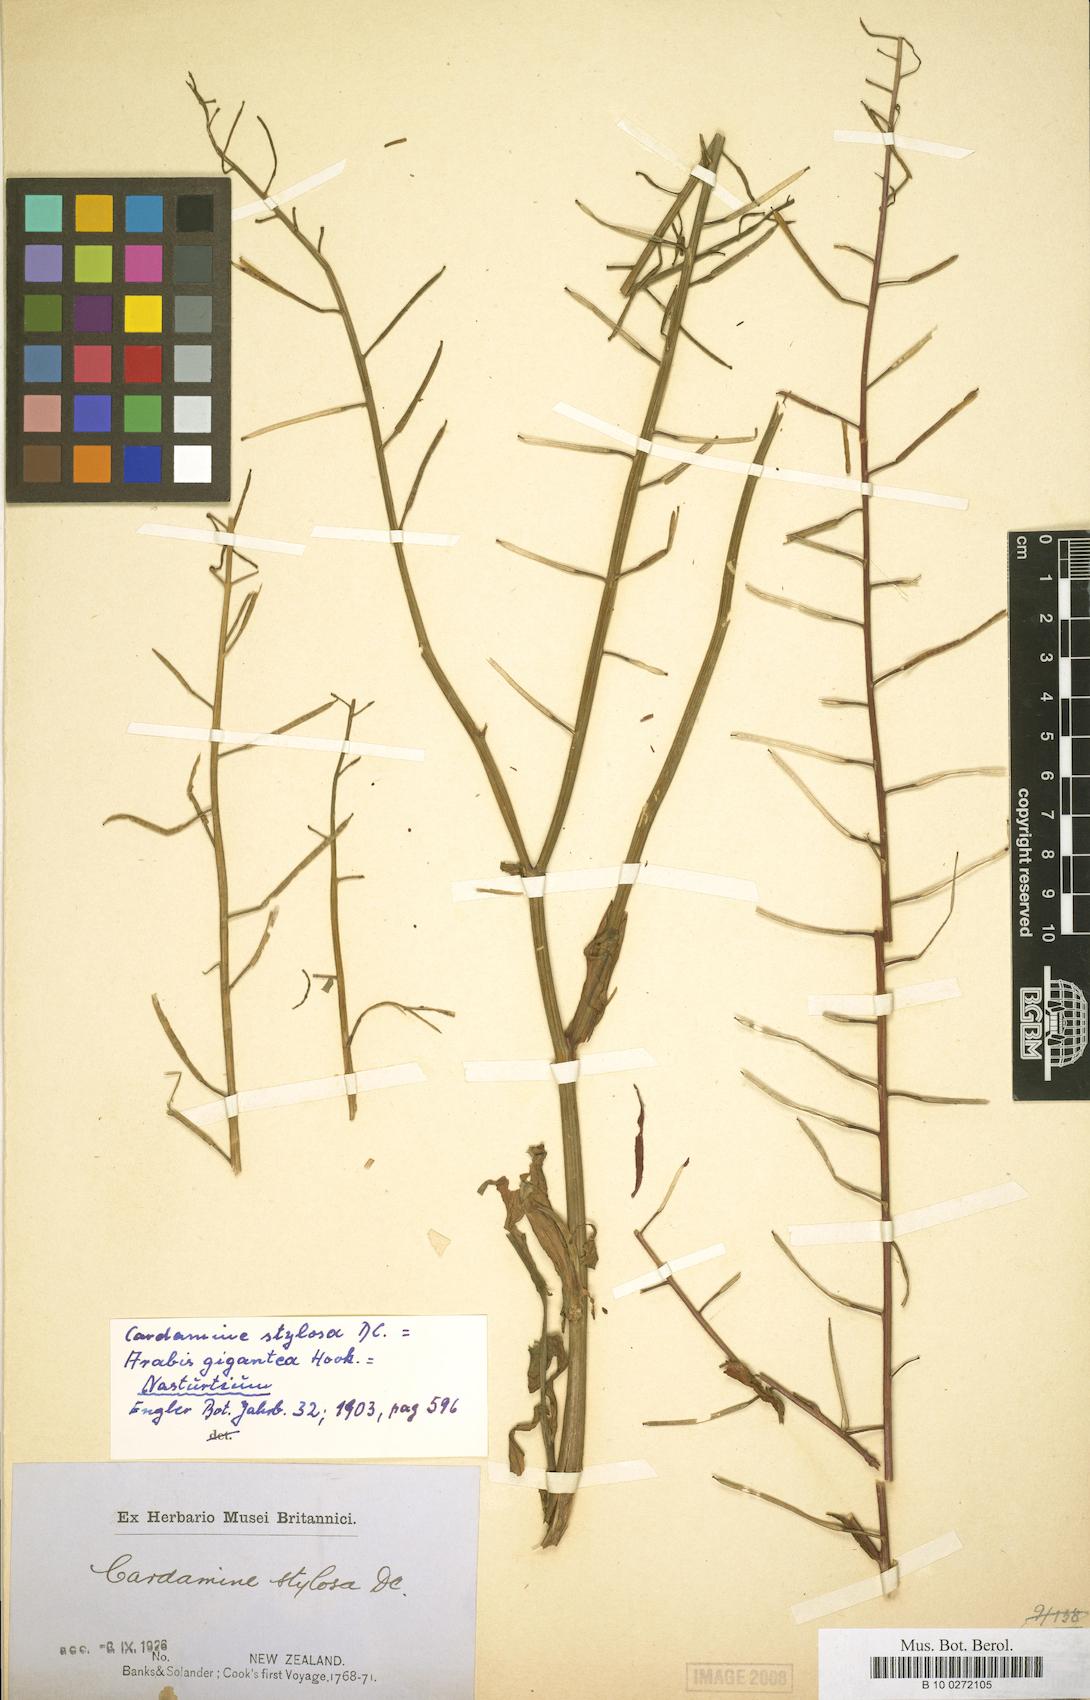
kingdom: Plantae
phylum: Tracheophyta
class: Magnoliopsida
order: Brassicales
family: Brassicaceae
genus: Nasturtium
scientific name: Nasturtium floridanum
